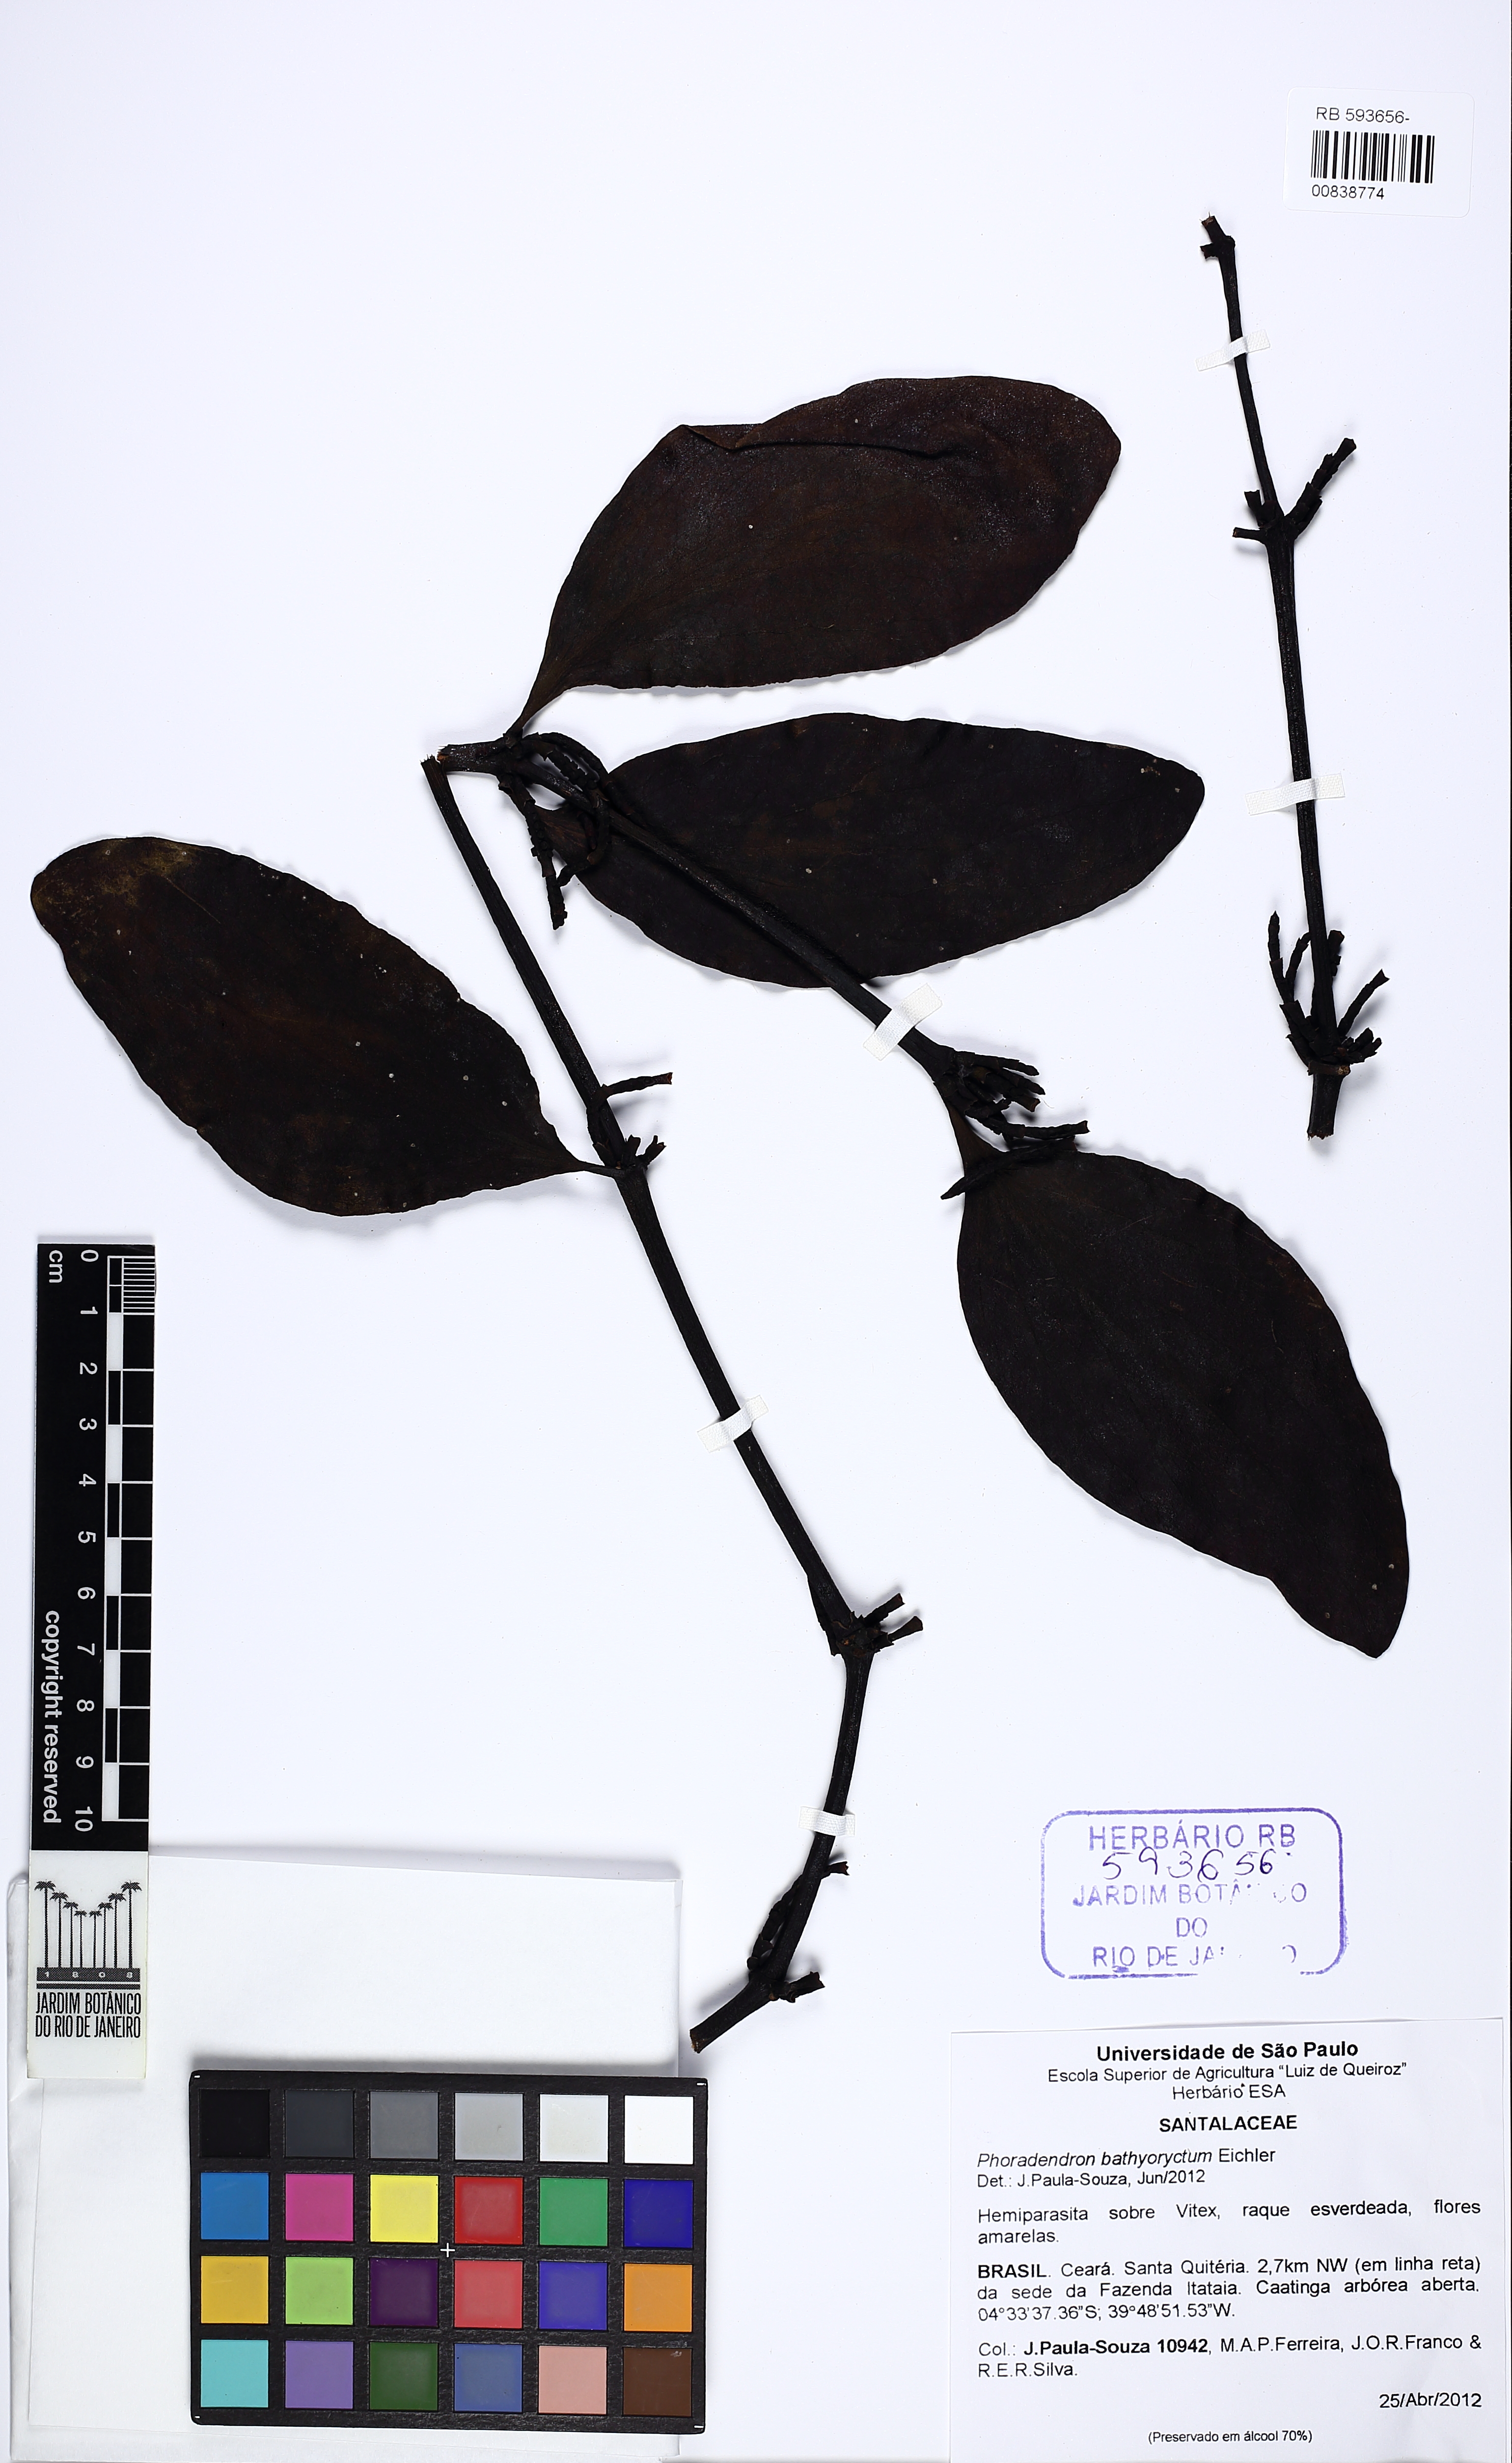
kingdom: Plantae
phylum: Tracheophyta
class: Magnoliopsida
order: Santalales
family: Viscaceae
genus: Phoradendron
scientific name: Phoradendron bathyoryctum
